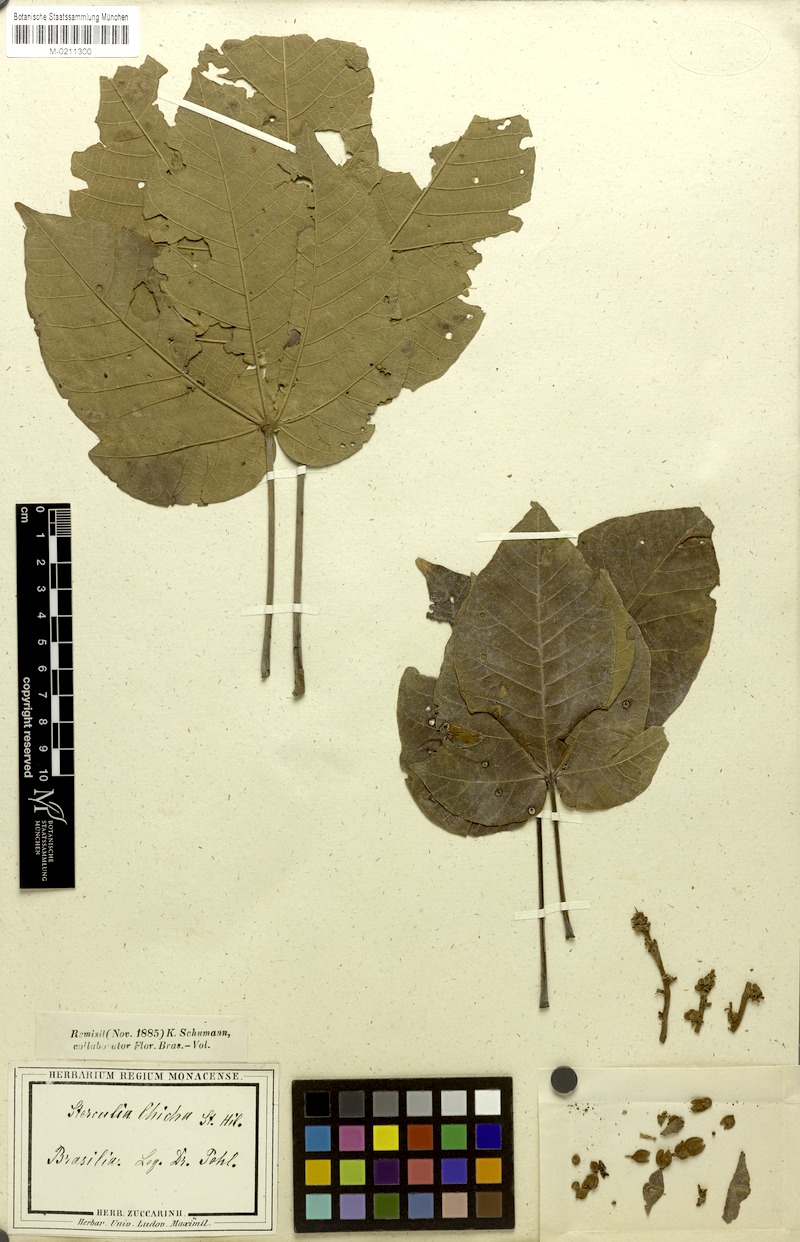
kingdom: Plantae
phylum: Tracheophyta
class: Magnoliopsida
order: Malvales
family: Malvaceae
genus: Sterculia
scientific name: Sterculia apetala
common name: Panama tree
